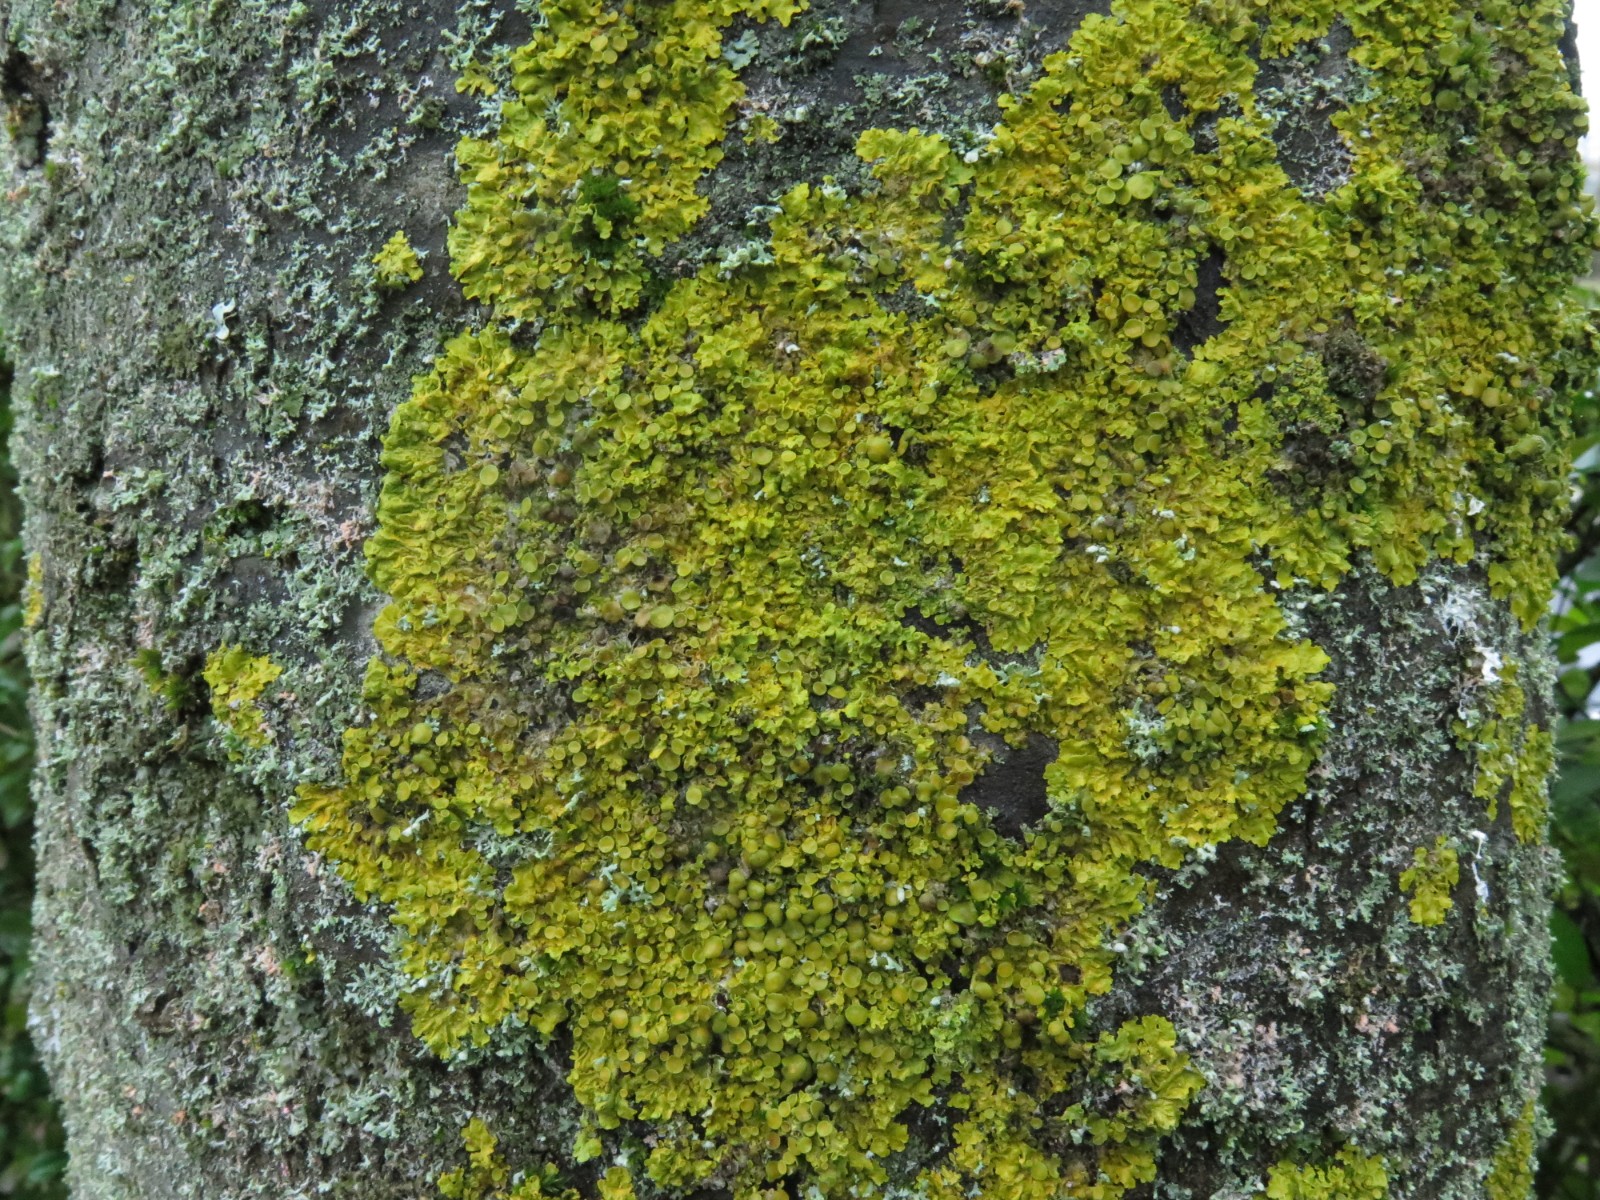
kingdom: Fungi
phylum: Ascomycota
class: Lecanoromycetes
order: Teloschistales
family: Teloschistaceae
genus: Xanthoria
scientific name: Xanthoria parietina
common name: almindelig væggelav
